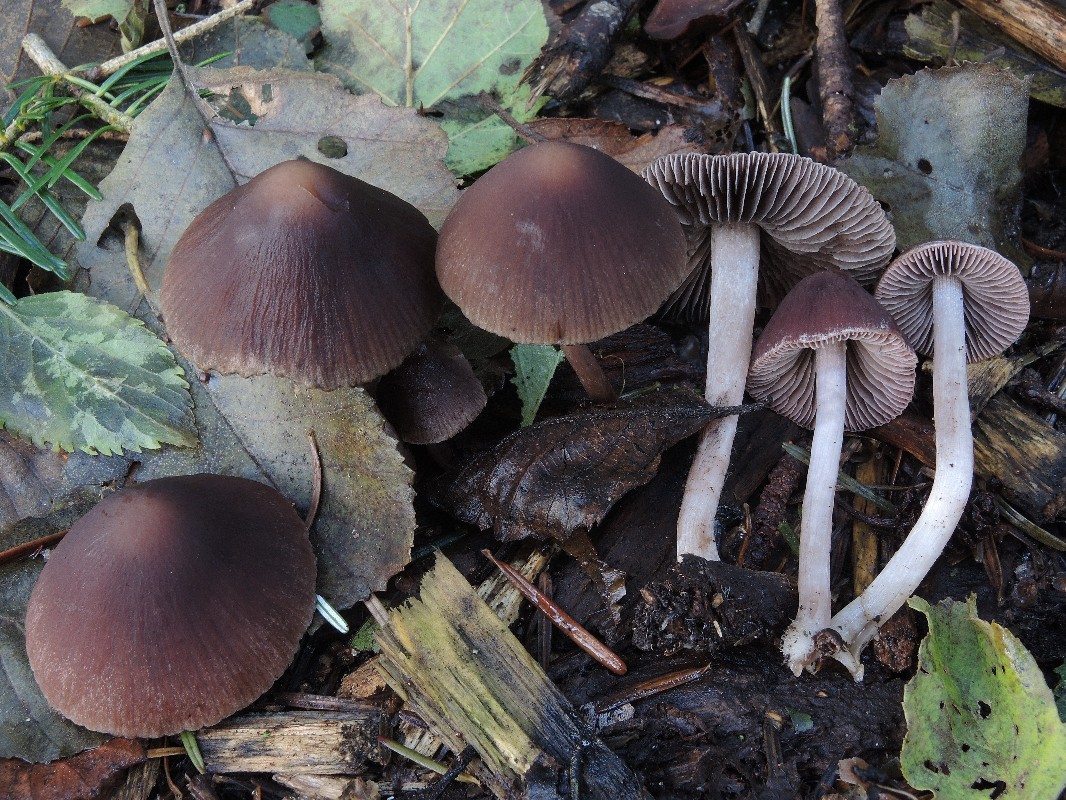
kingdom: Fungi
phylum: Basidiomycota
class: Agaricomycetes
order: Agaricales
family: Psathyrellaceae
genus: Psathyrella
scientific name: Psathyrella bipellis
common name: vinrød mørkhat
